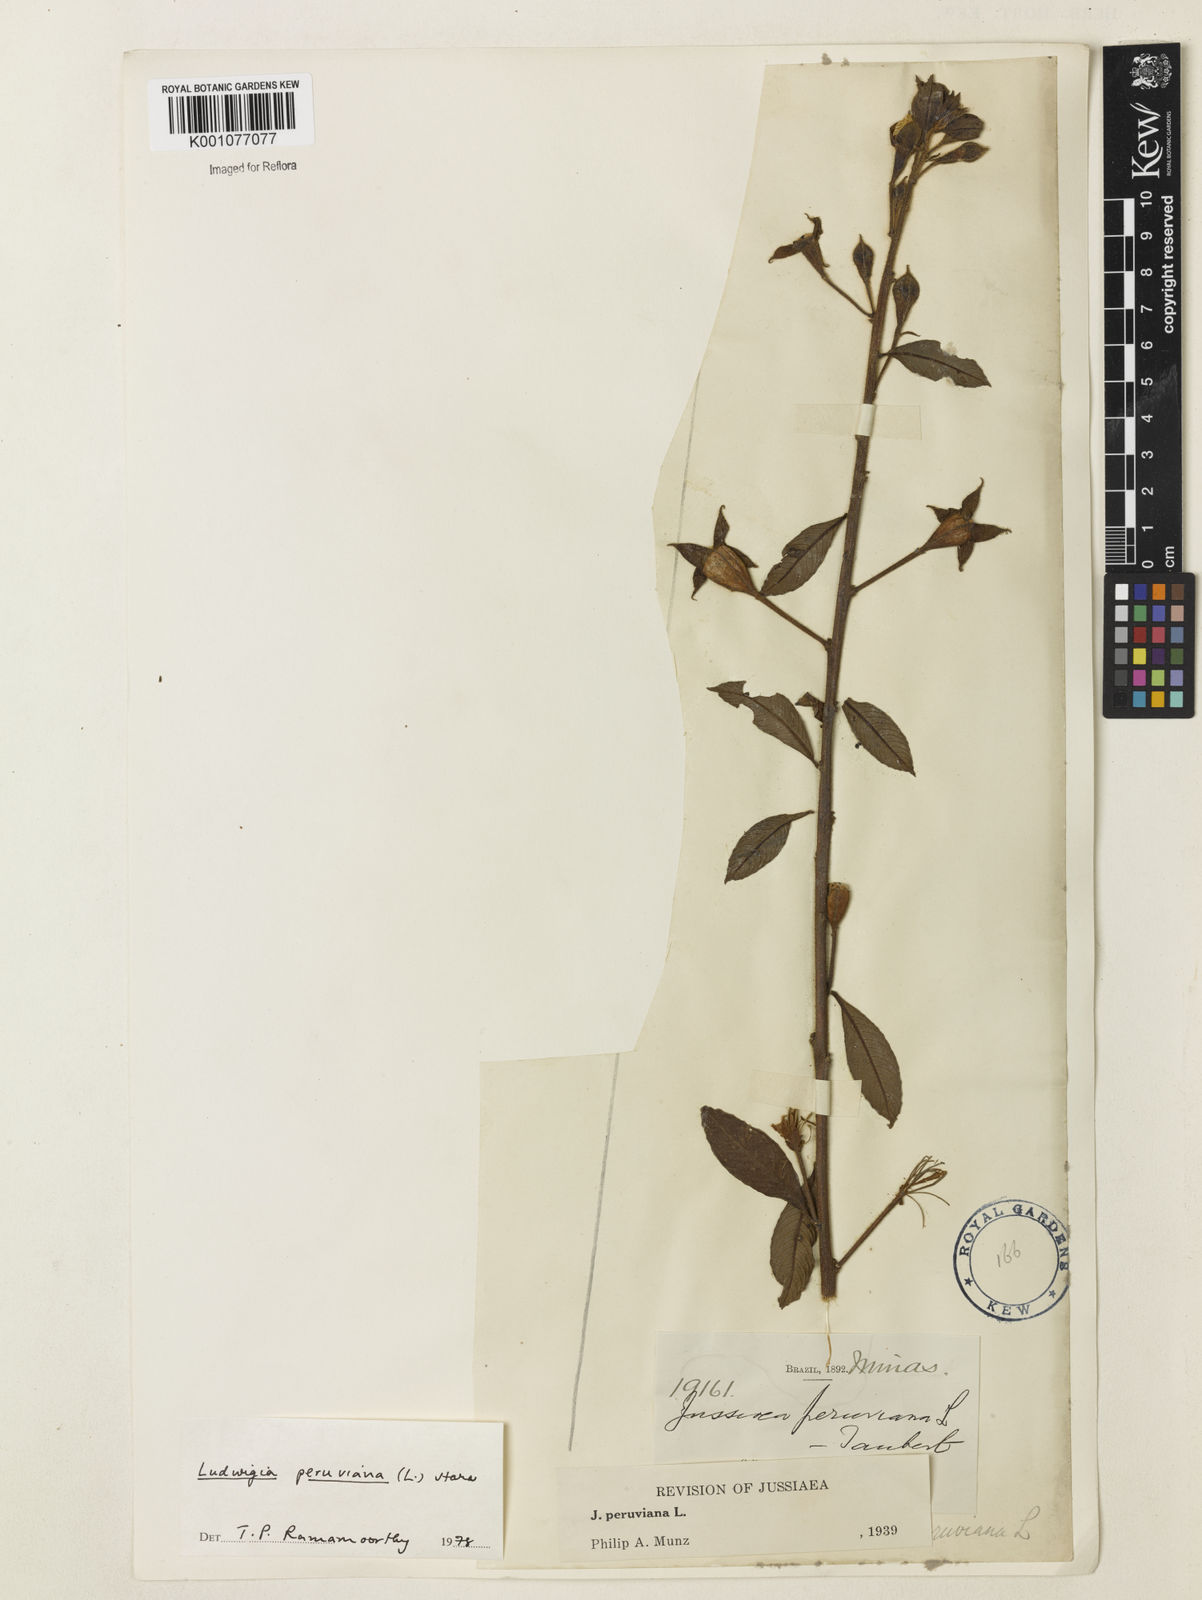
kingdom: Plantae
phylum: Tracheophyta
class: Magnoliopsida
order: Myrtales
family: Onagraceae
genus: Ludwigia
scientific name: Ludwigia peruviana
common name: Peruvian primrose-willow
